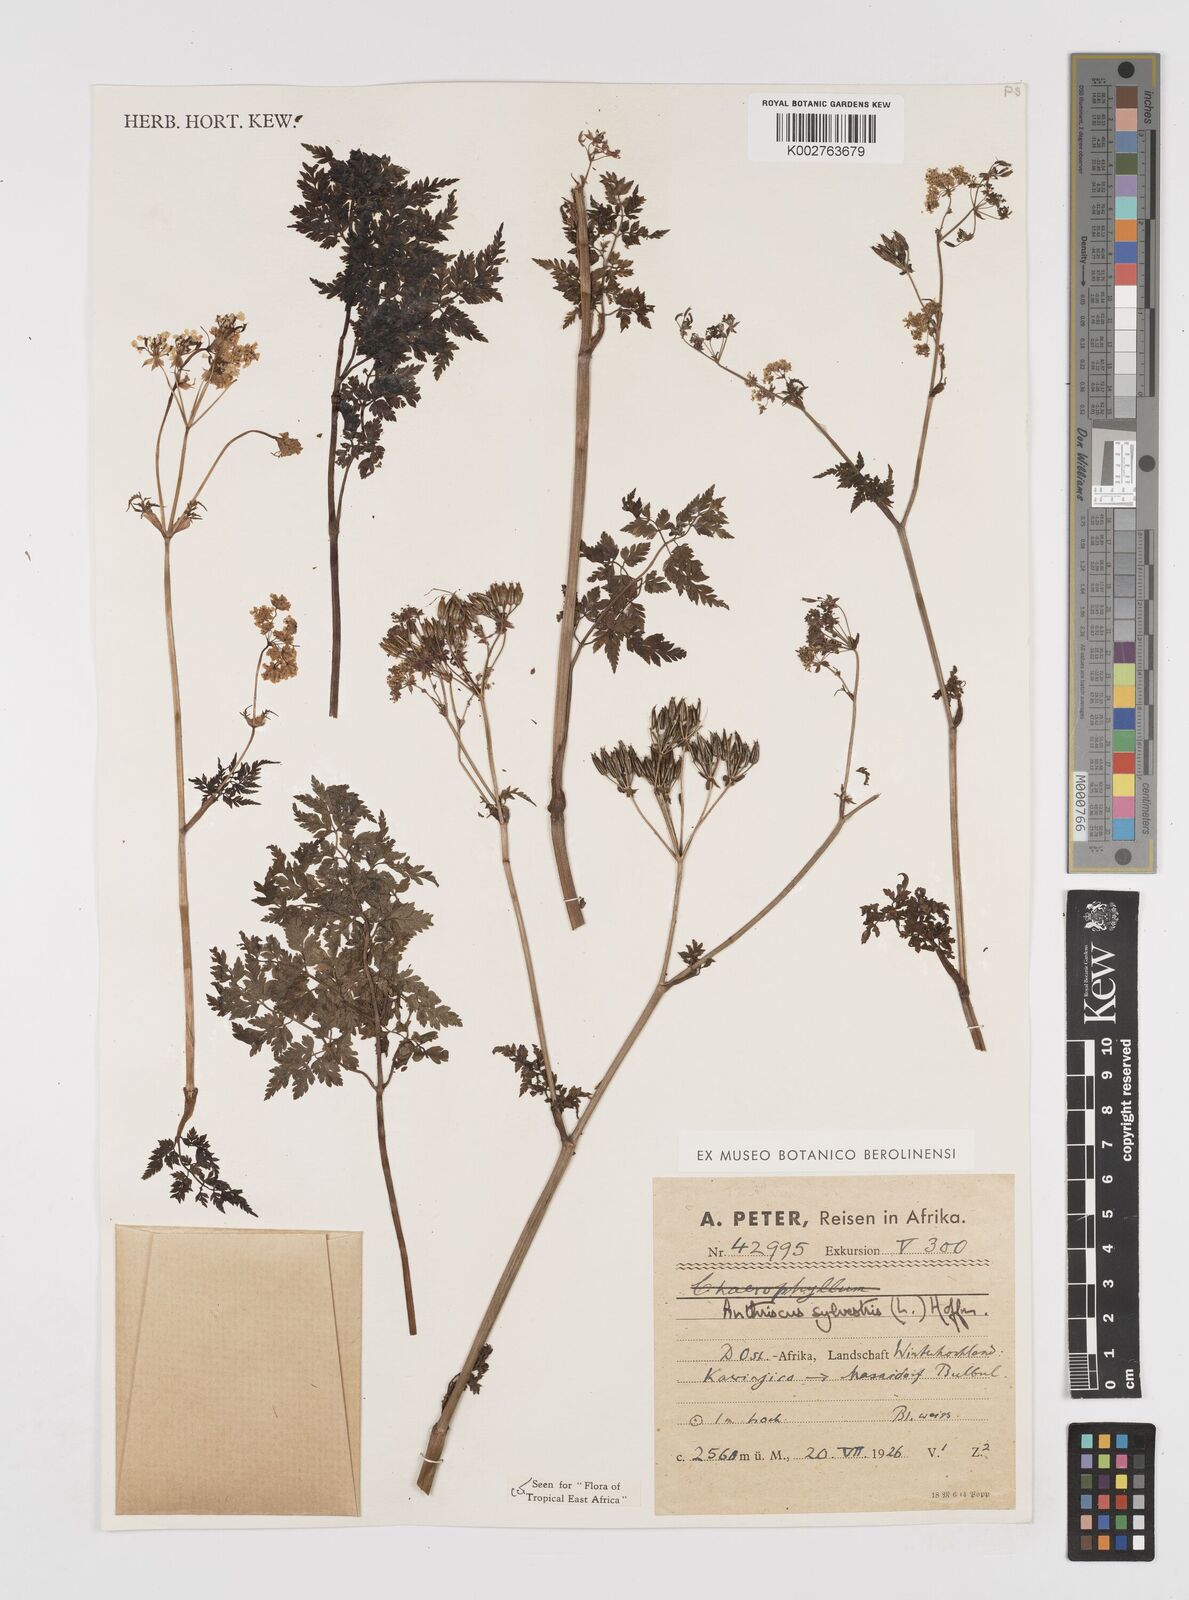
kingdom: Plantae
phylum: Tracheophyta
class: Magnoliopsida
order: Apiales
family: Apiaceae
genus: Anthriscus
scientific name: Anthriscus sylvestris
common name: Cow parsley
